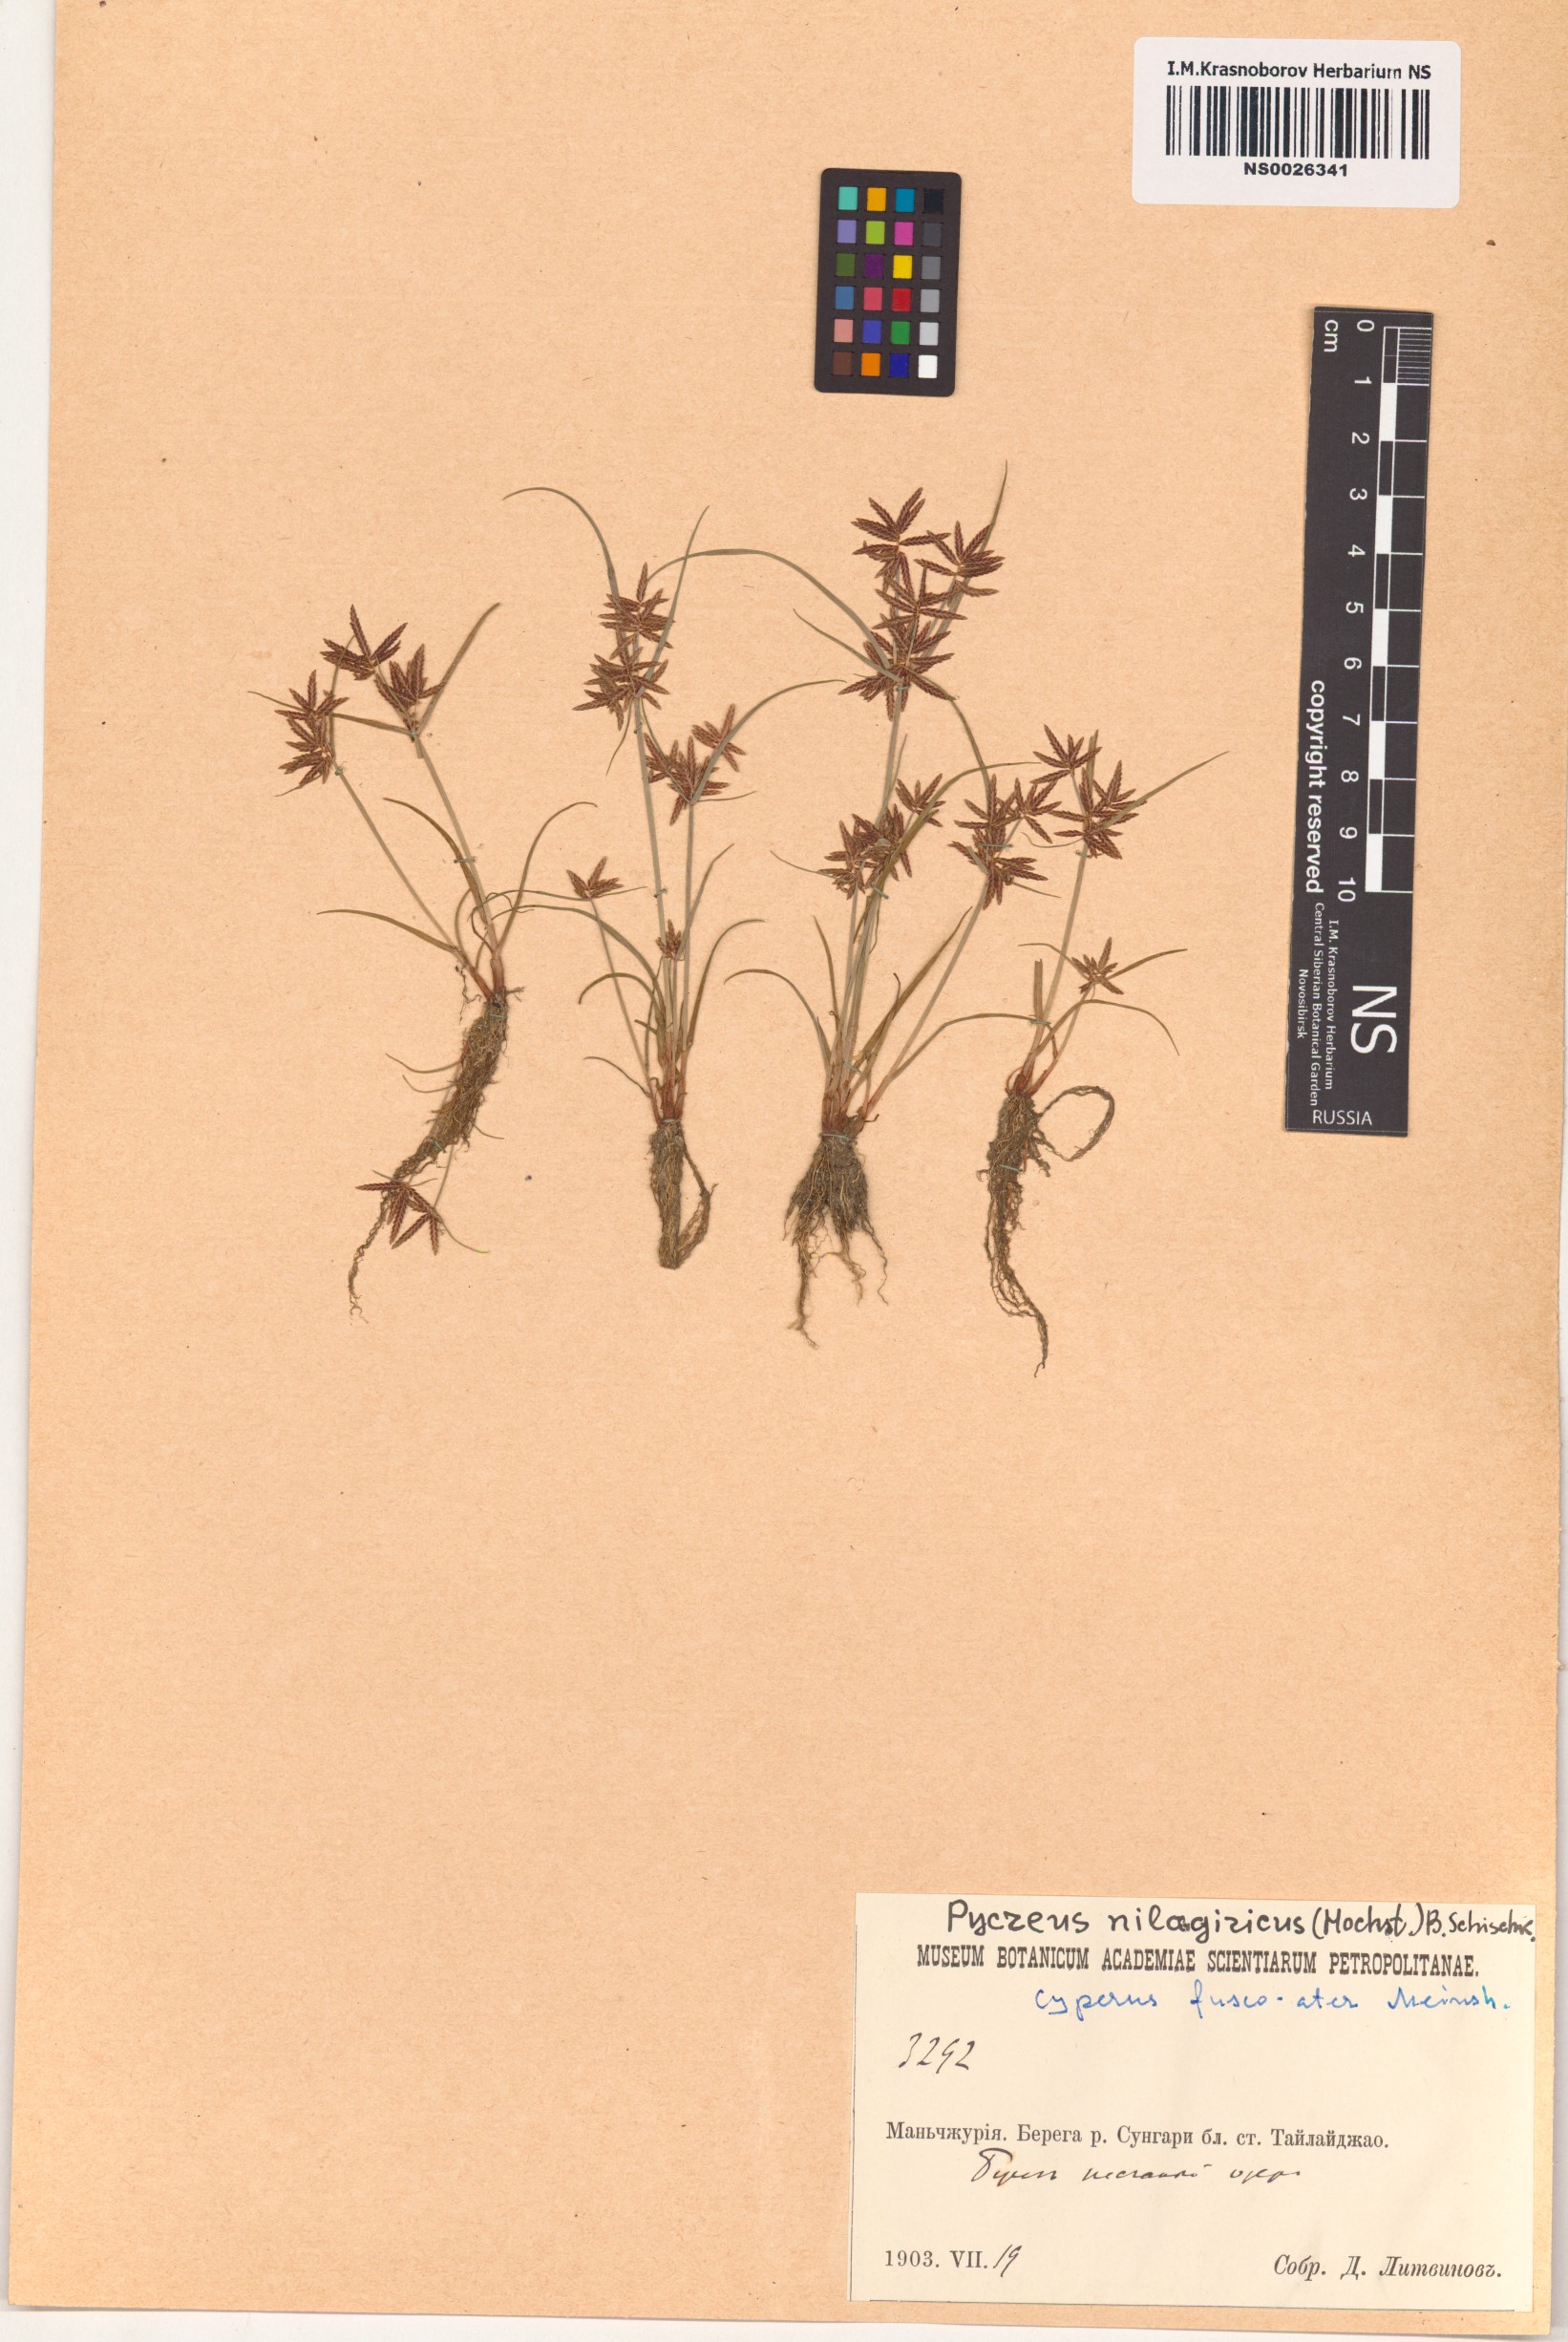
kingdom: Plantae
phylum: Tracheophyta
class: Liliopsida
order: Poales
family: Cyperaceae
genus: Cyperus
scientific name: Cyperus flavidus
